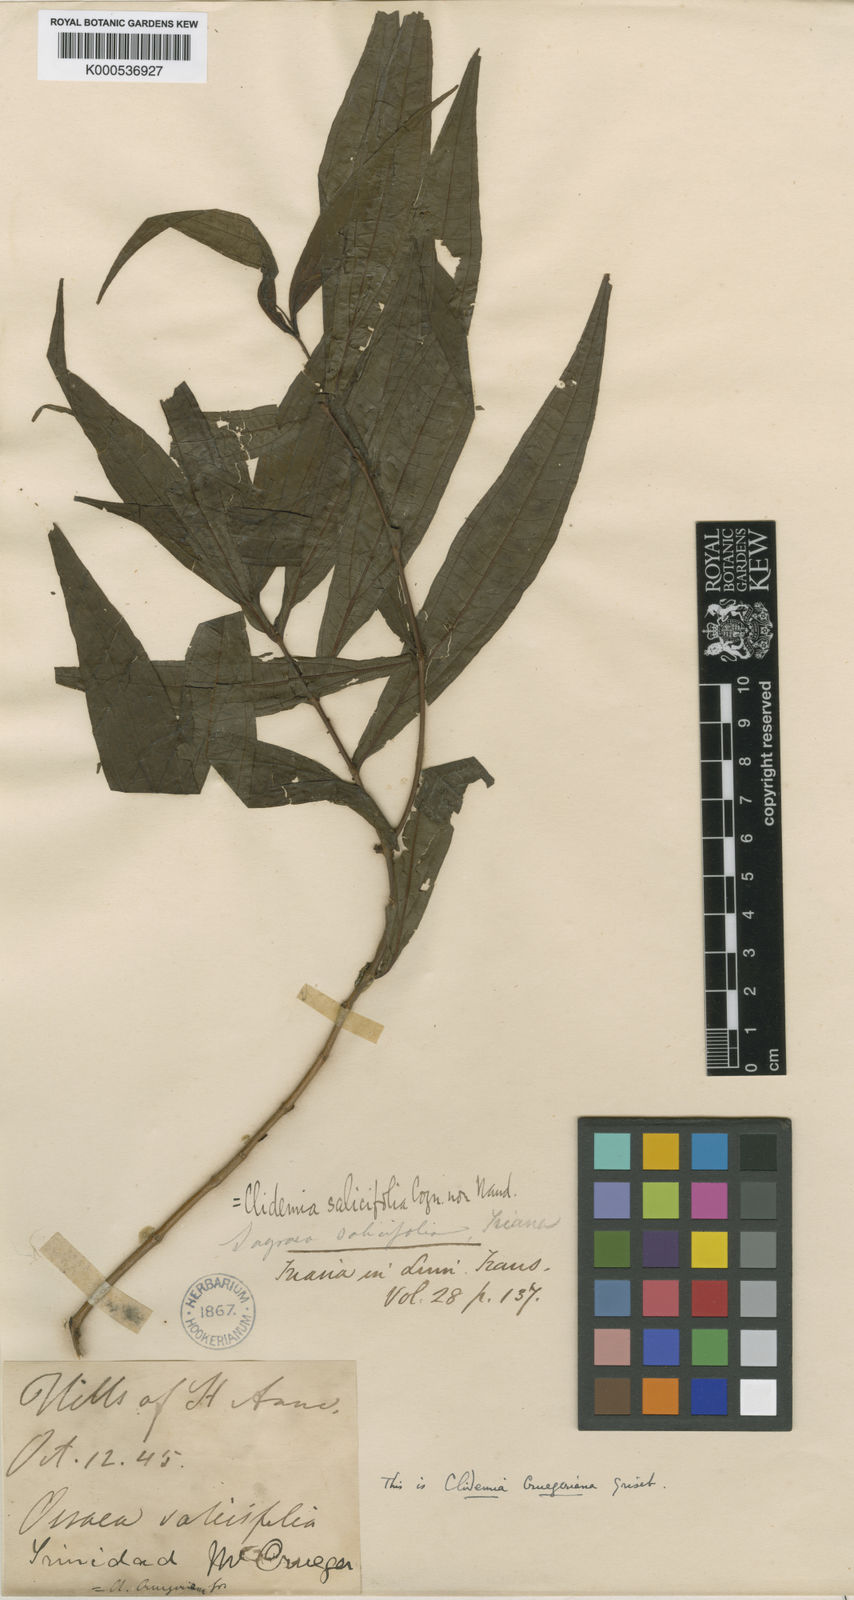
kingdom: Plantae
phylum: Tracheophyta
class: Magnoliopsida
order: Myrtales
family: Melastomataceae
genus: Miconia
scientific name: Miconia neocrugeriana
